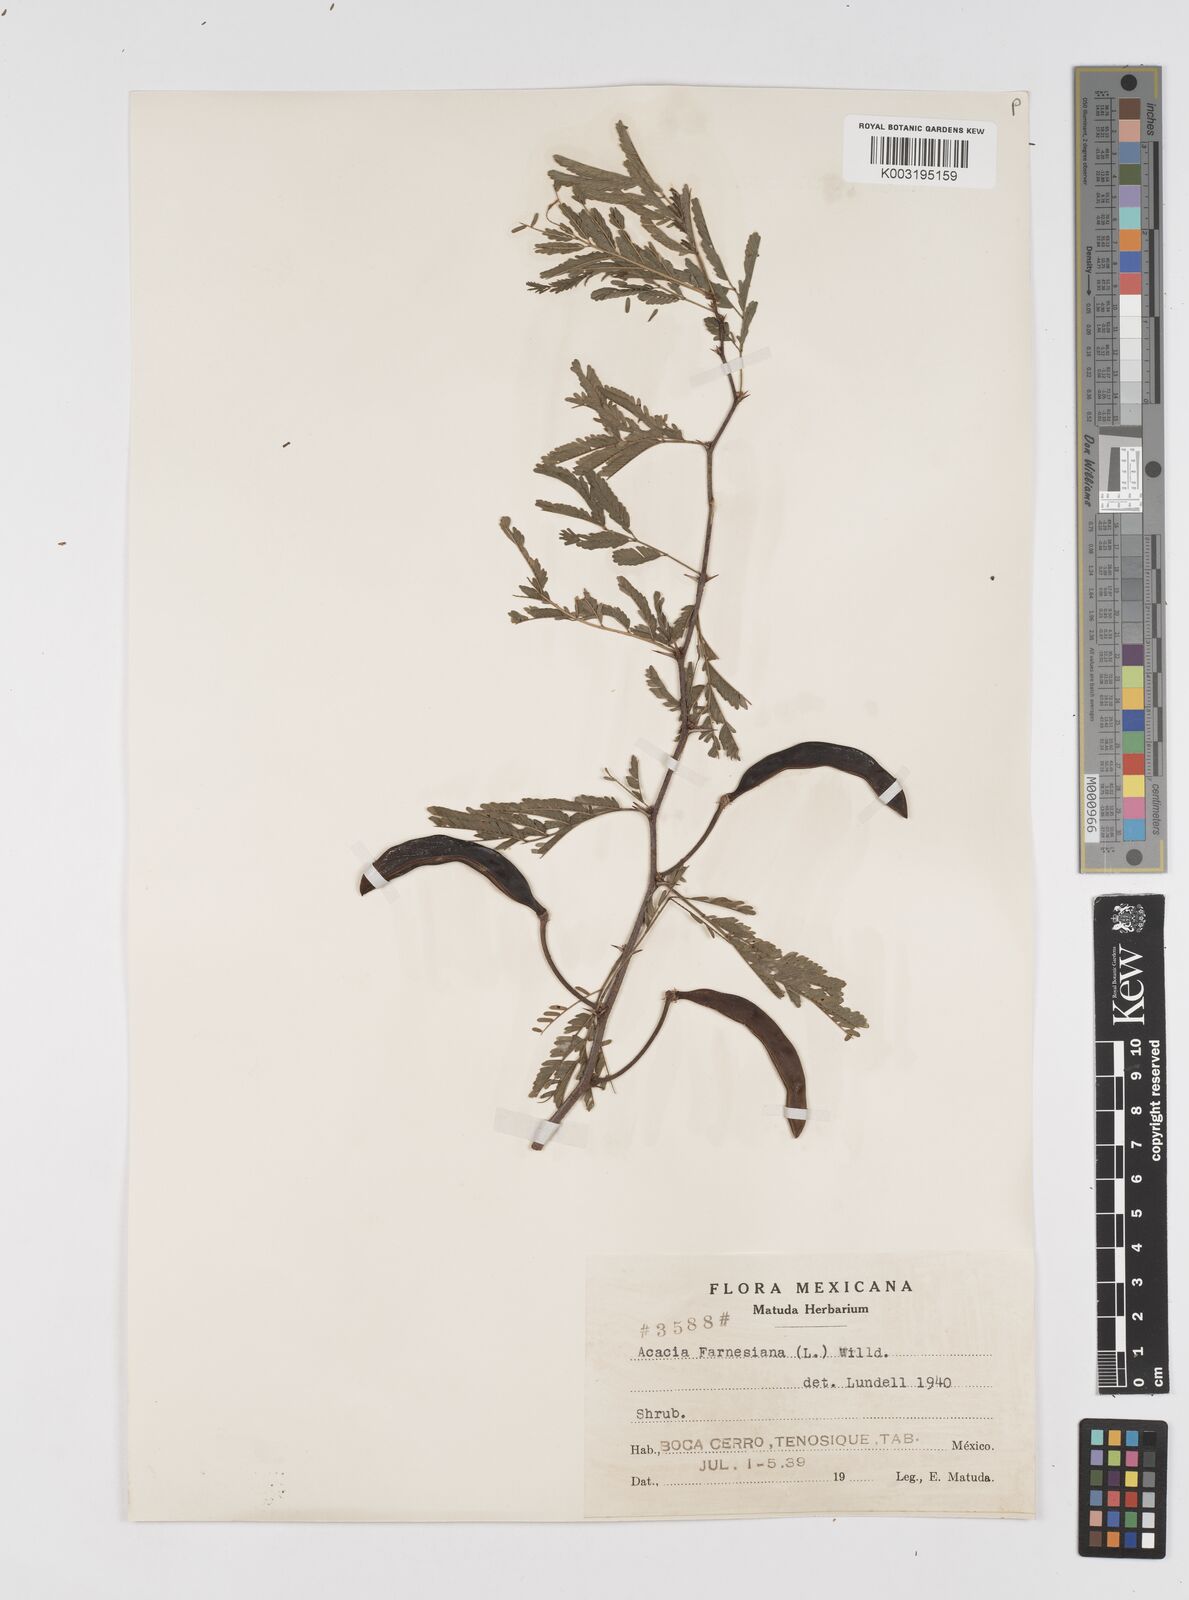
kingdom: Plantae
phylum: Tracheophyta
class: Magnoliopsida
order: Fabales
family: Fabaceae
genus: Vachellia
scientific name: Vachellia farnesiana
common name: Sweet acacia
